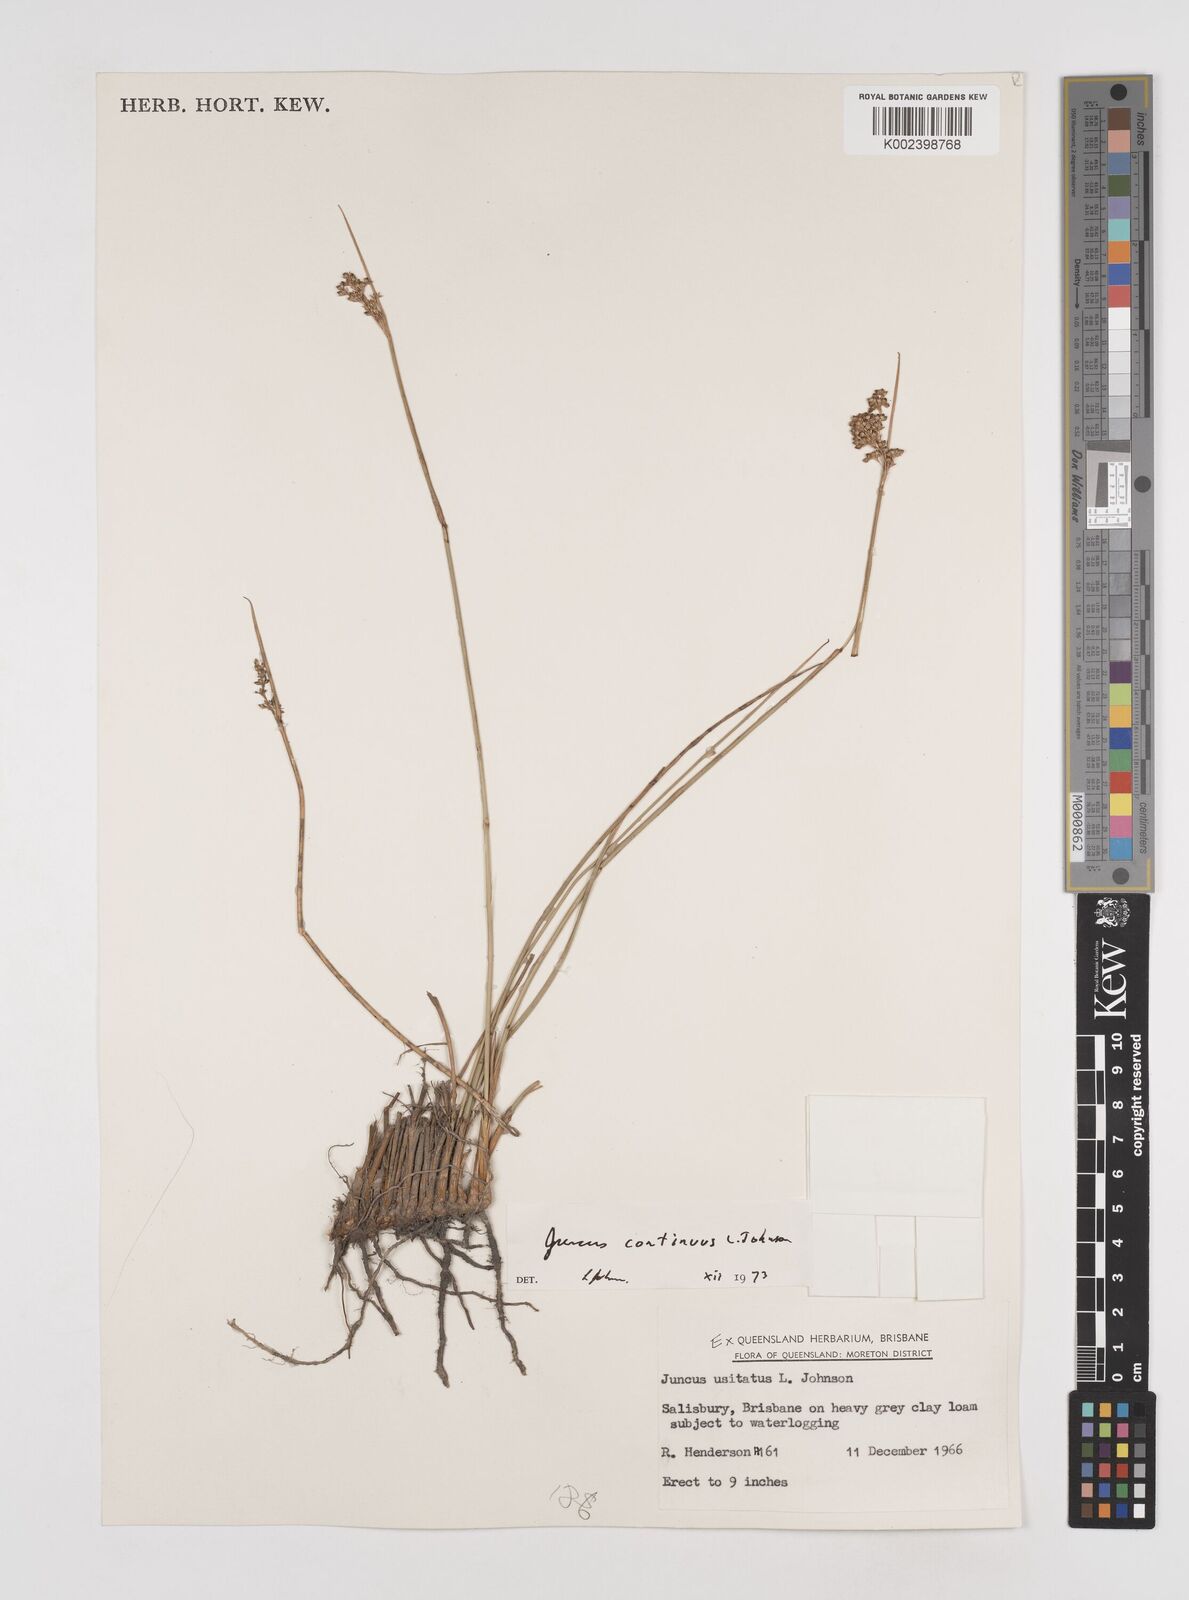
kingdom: Plantae
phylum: Tracheophyta
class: Liliopsida
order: Poales
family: Juncaceae
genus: Juncus
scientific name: Juncus continuus
